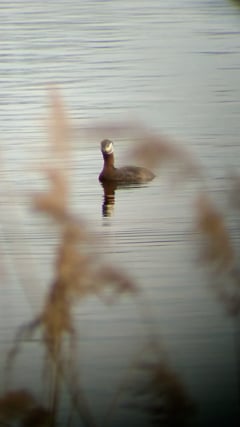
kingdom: Animalia
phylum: Chordata
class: Aves
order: Podicipediformes
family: Podicipedidae
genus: Podiceps
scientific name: Podiceps grisegena
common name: Red-necked grebe
